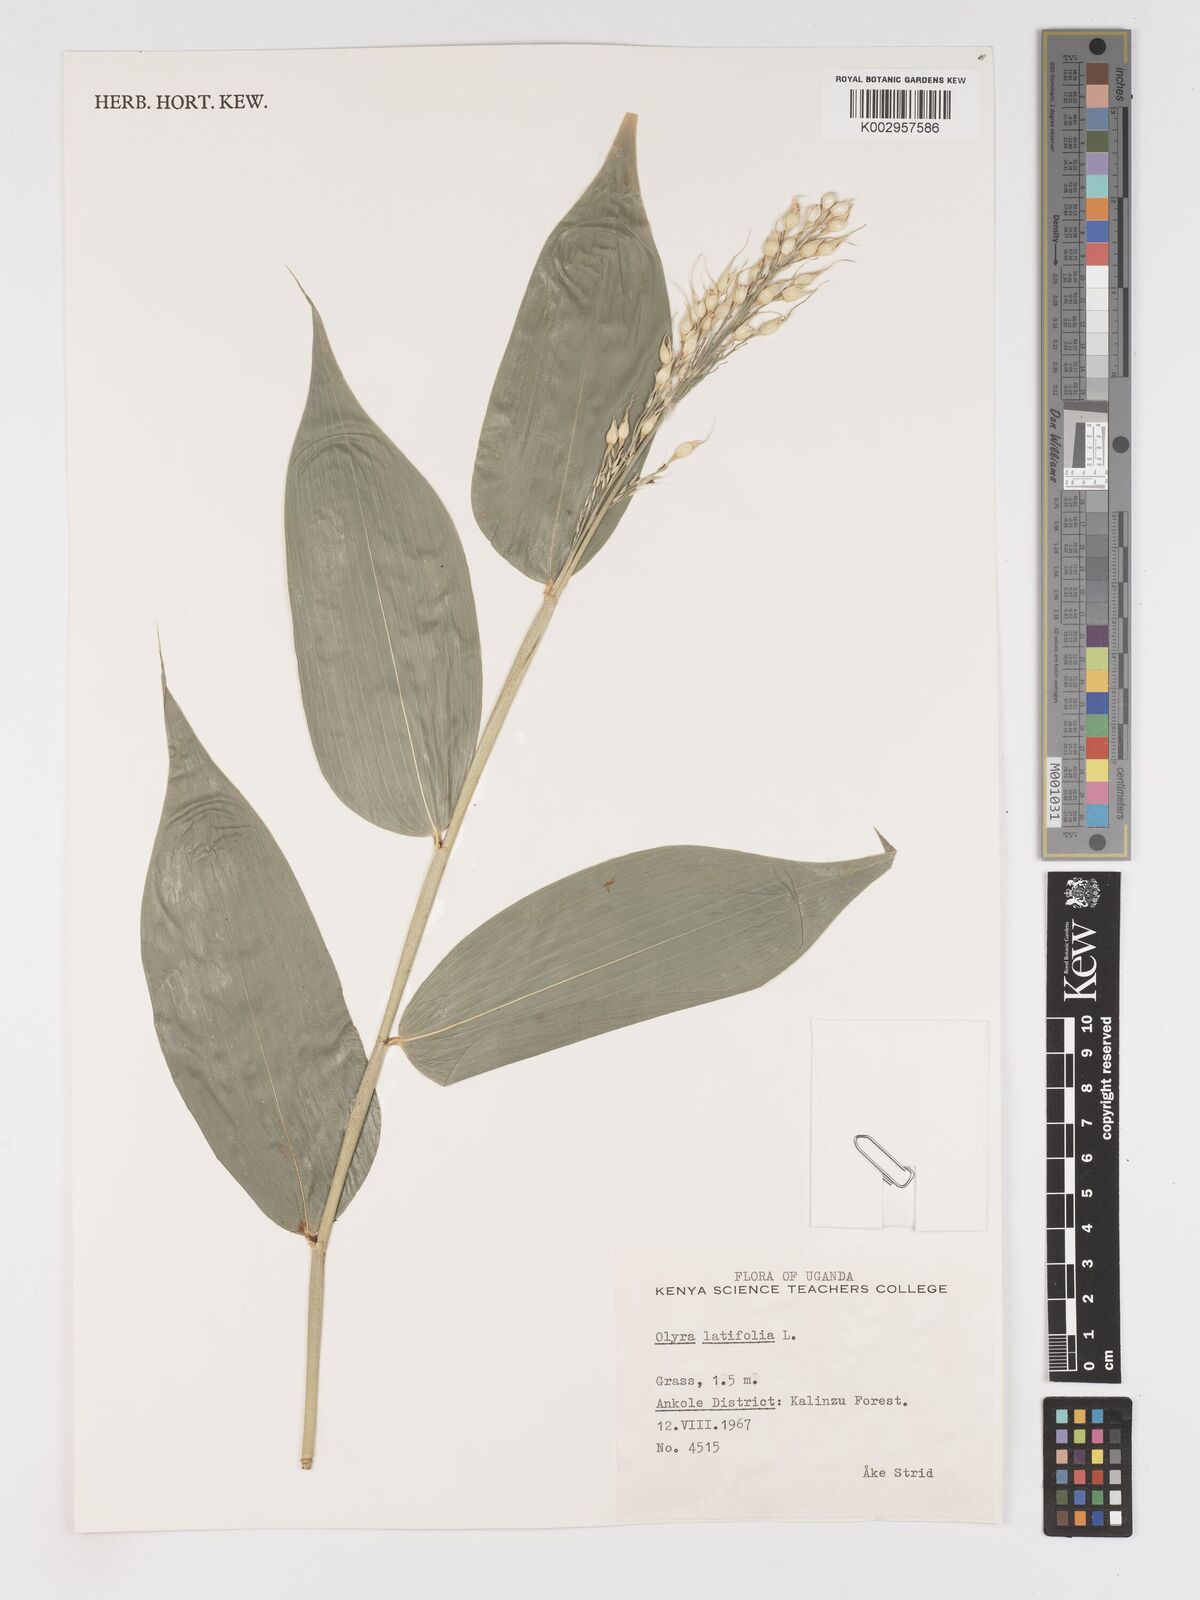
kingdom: Plantae
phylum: Tracheophyta
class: Liliopsida
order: Poales
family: Poaceae
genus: Olyra
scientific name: Olyra latifolia
